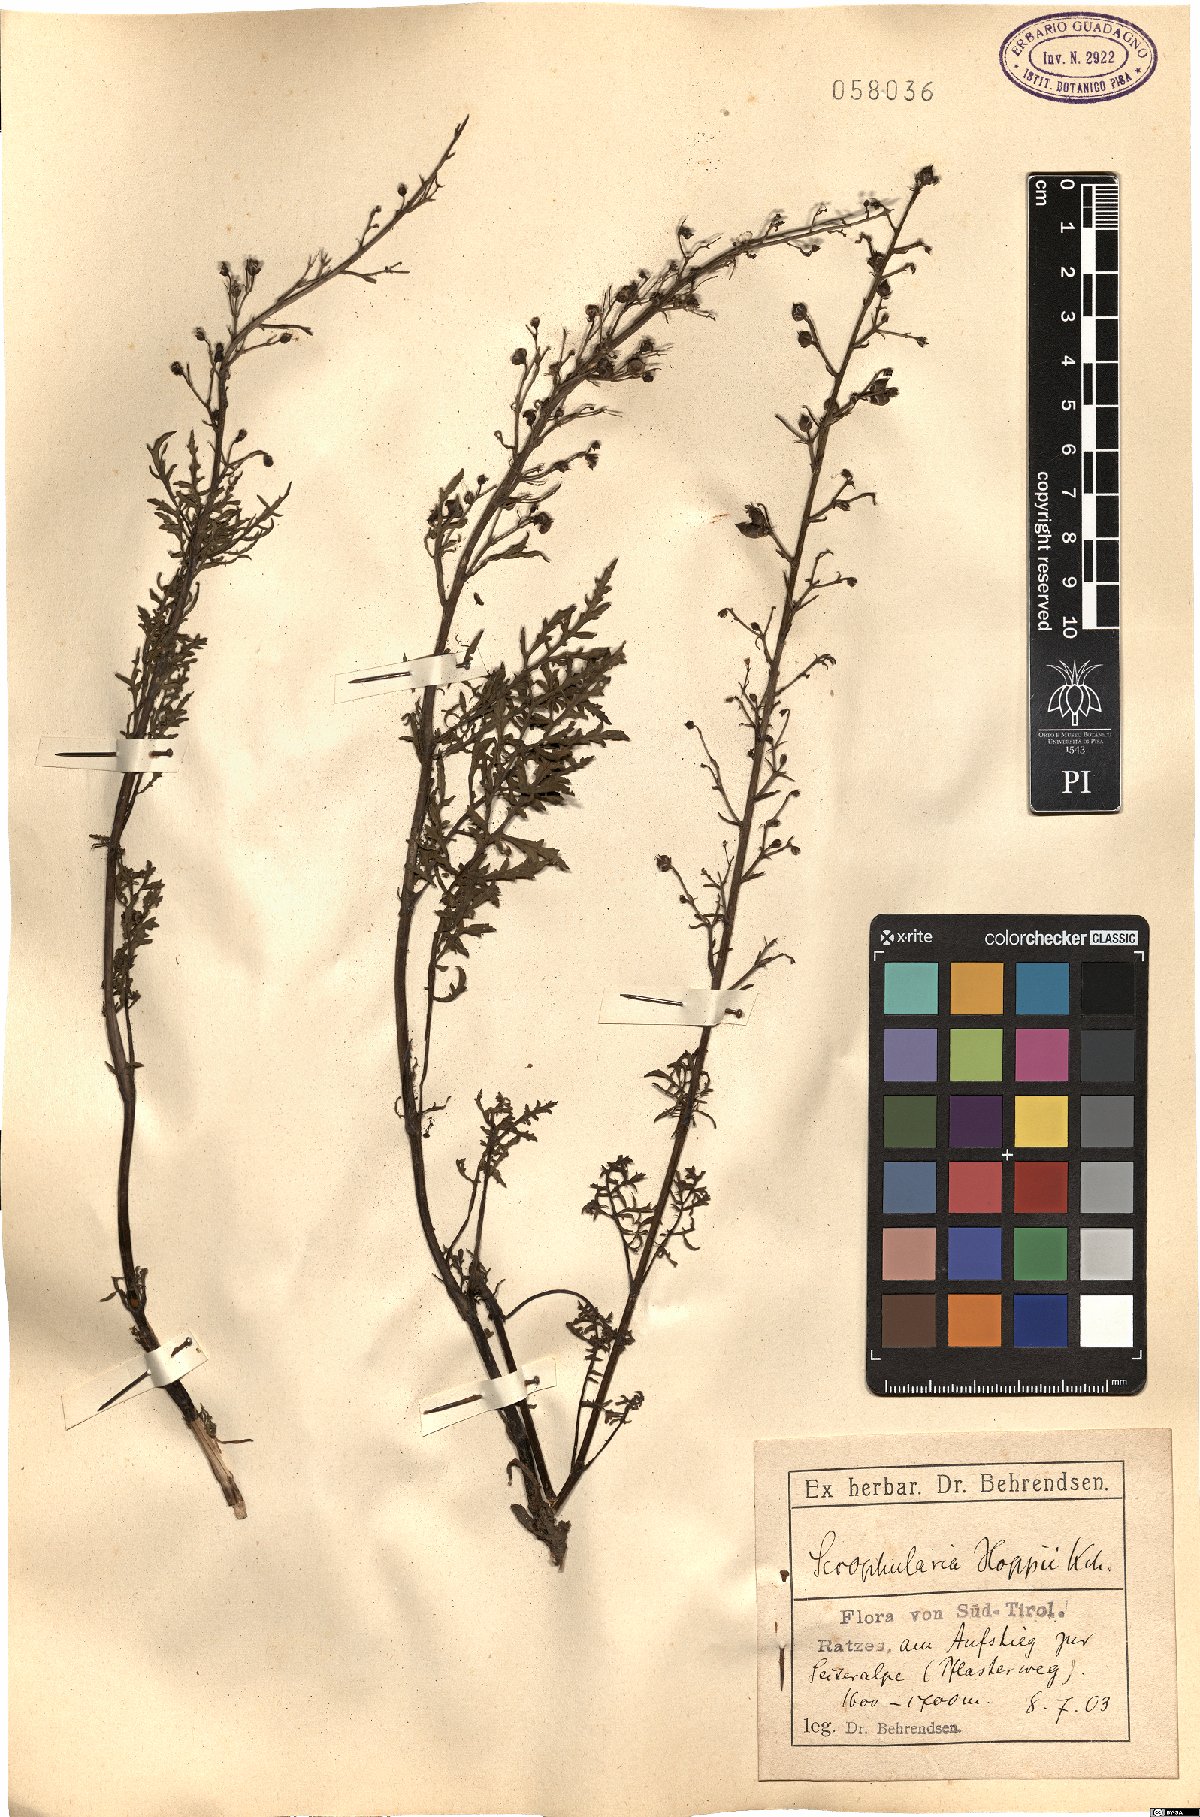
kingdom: Plantae
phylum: Tracheophyta
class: Magnoliopsida
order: Lamiales
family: Scrophulariaceae
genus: Scrophularia
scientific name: Scrophularia
